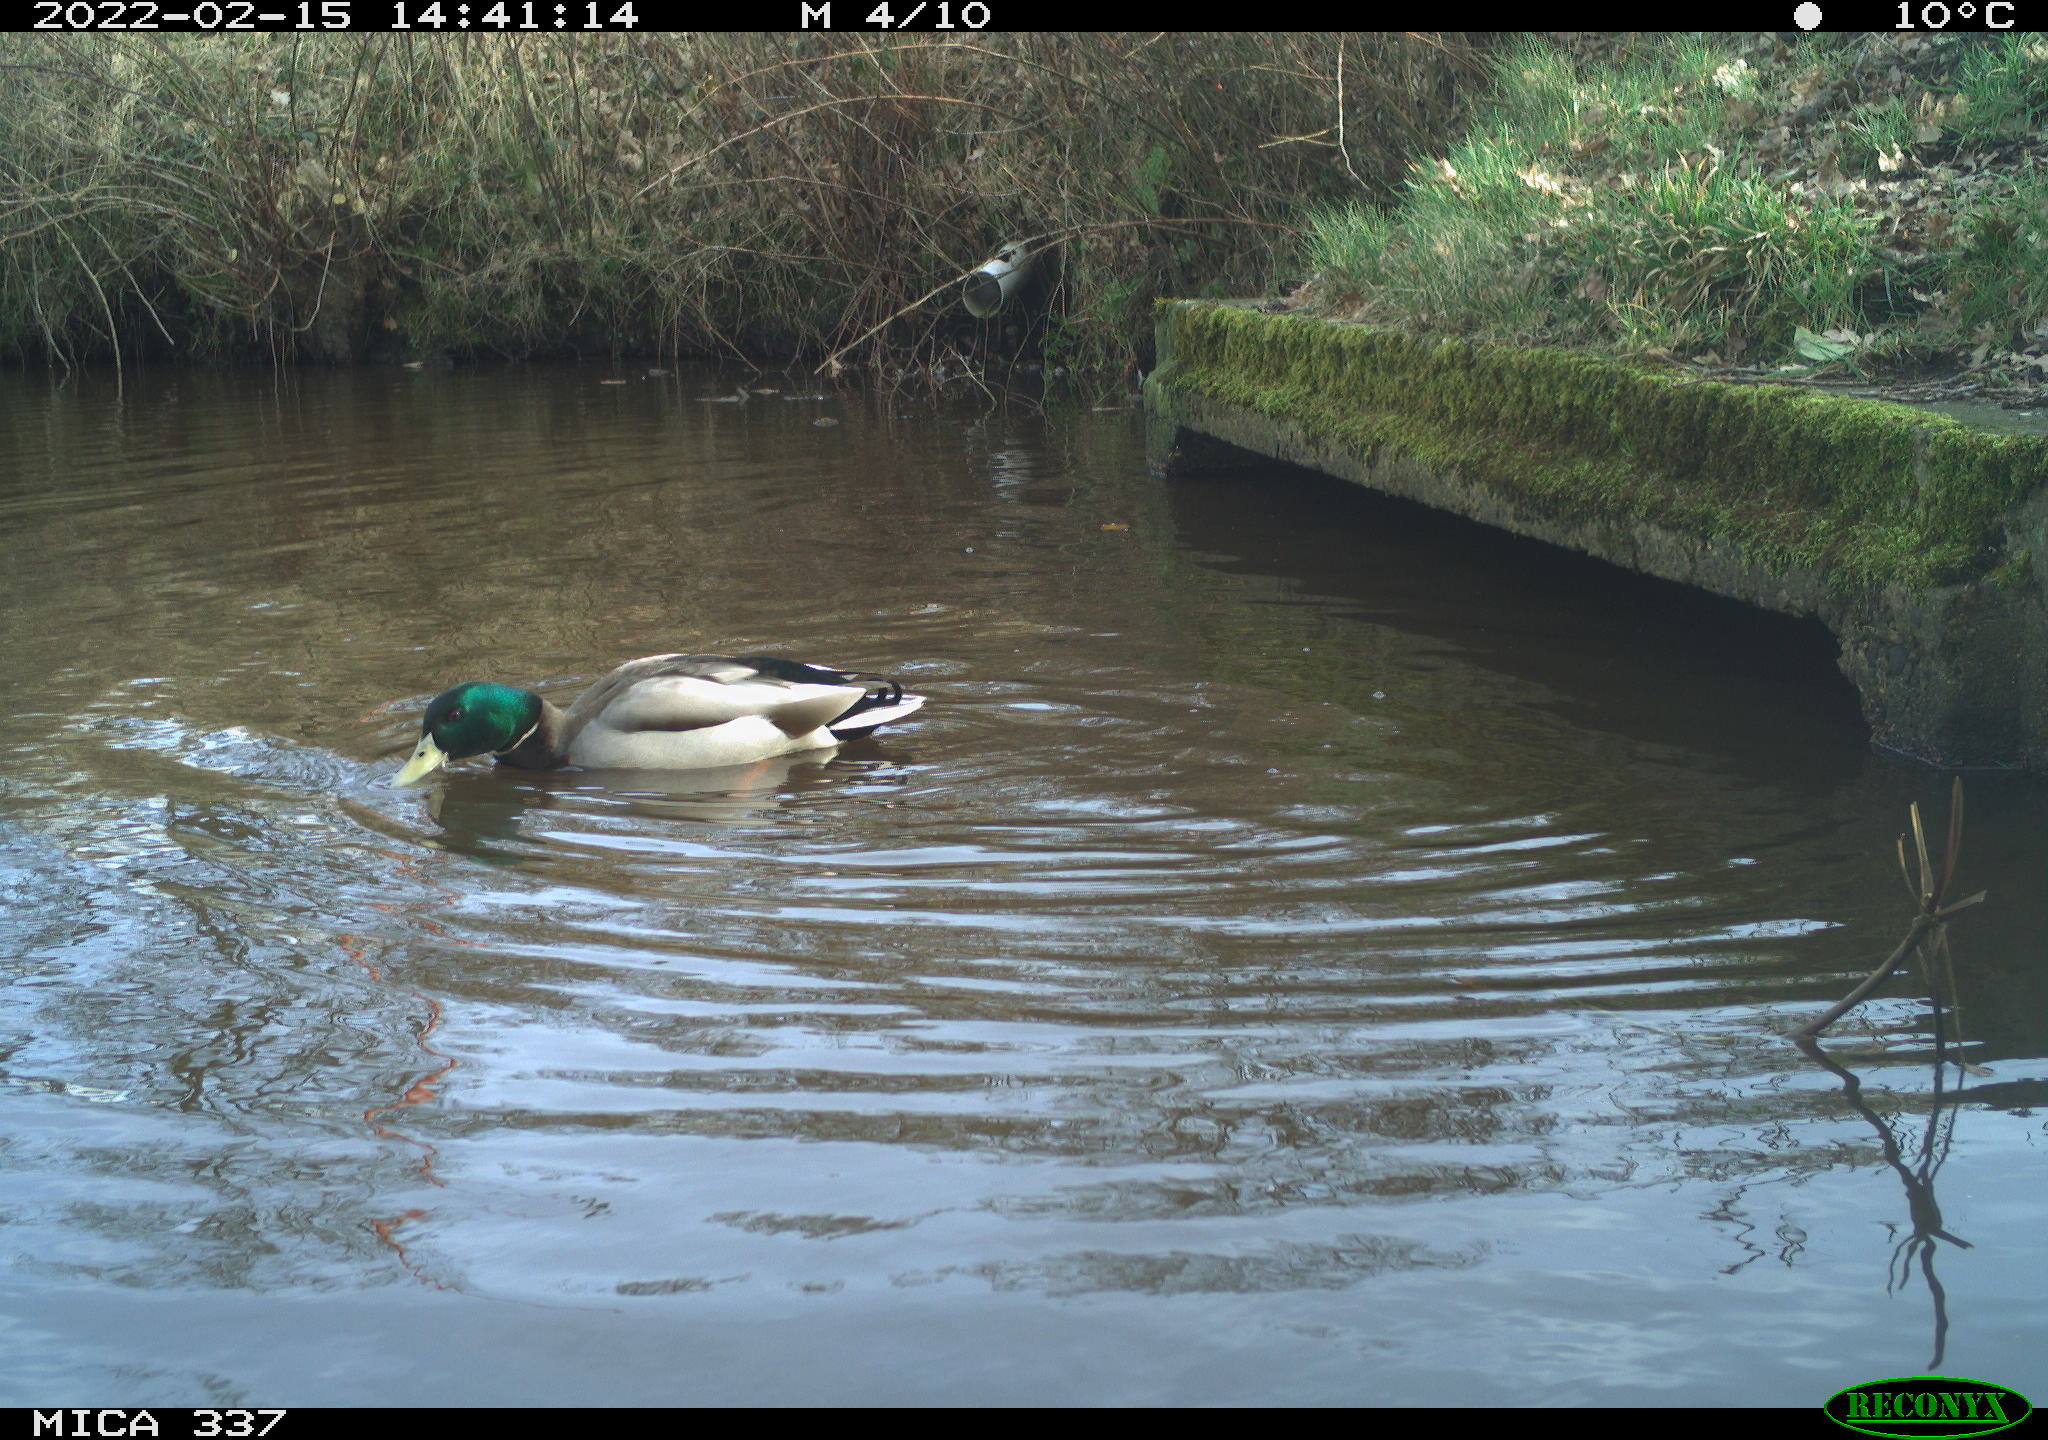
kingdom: Animalia
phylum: Chordata
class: Aves
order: Anseriformes
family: Anatidae
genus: Anas
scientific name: Anas platyrhynchos
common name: Mallard
